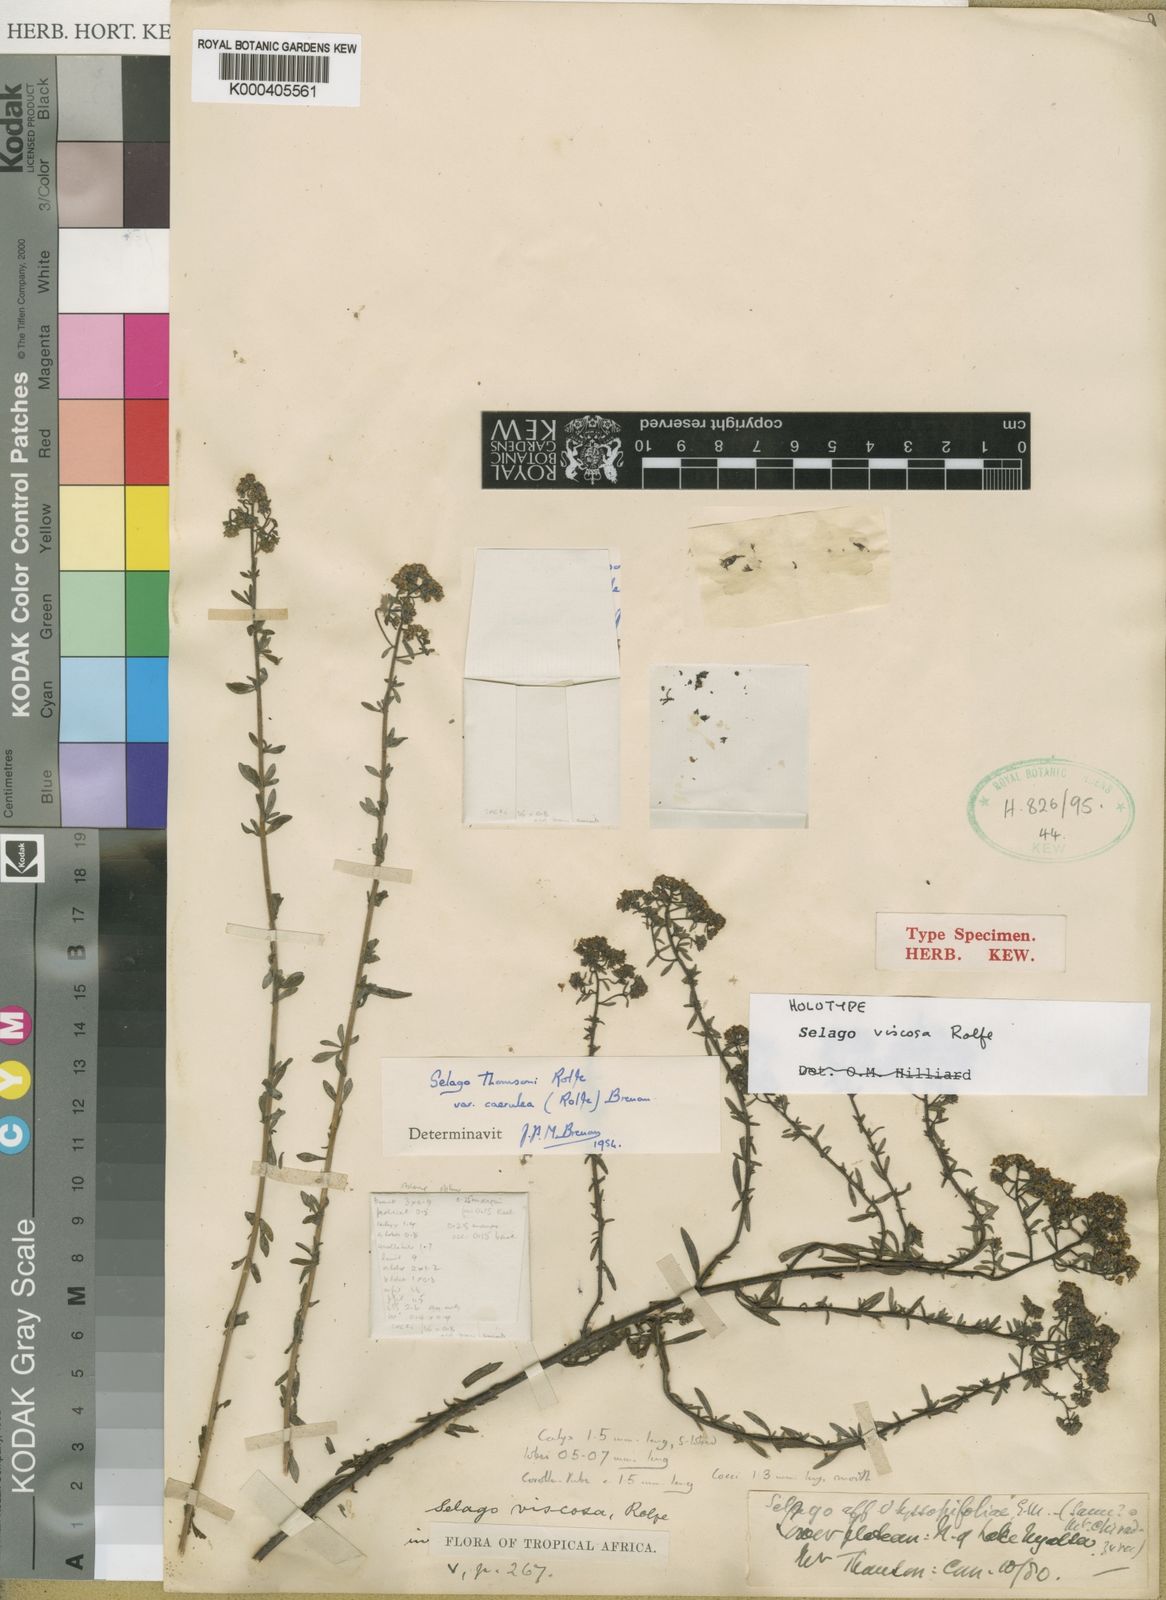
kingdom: Plantae
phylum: Tracheophyta
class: Magnoliopsida
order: Lamiales
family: Scrophulariaceae
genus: Selago
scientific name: Selago viscosa
